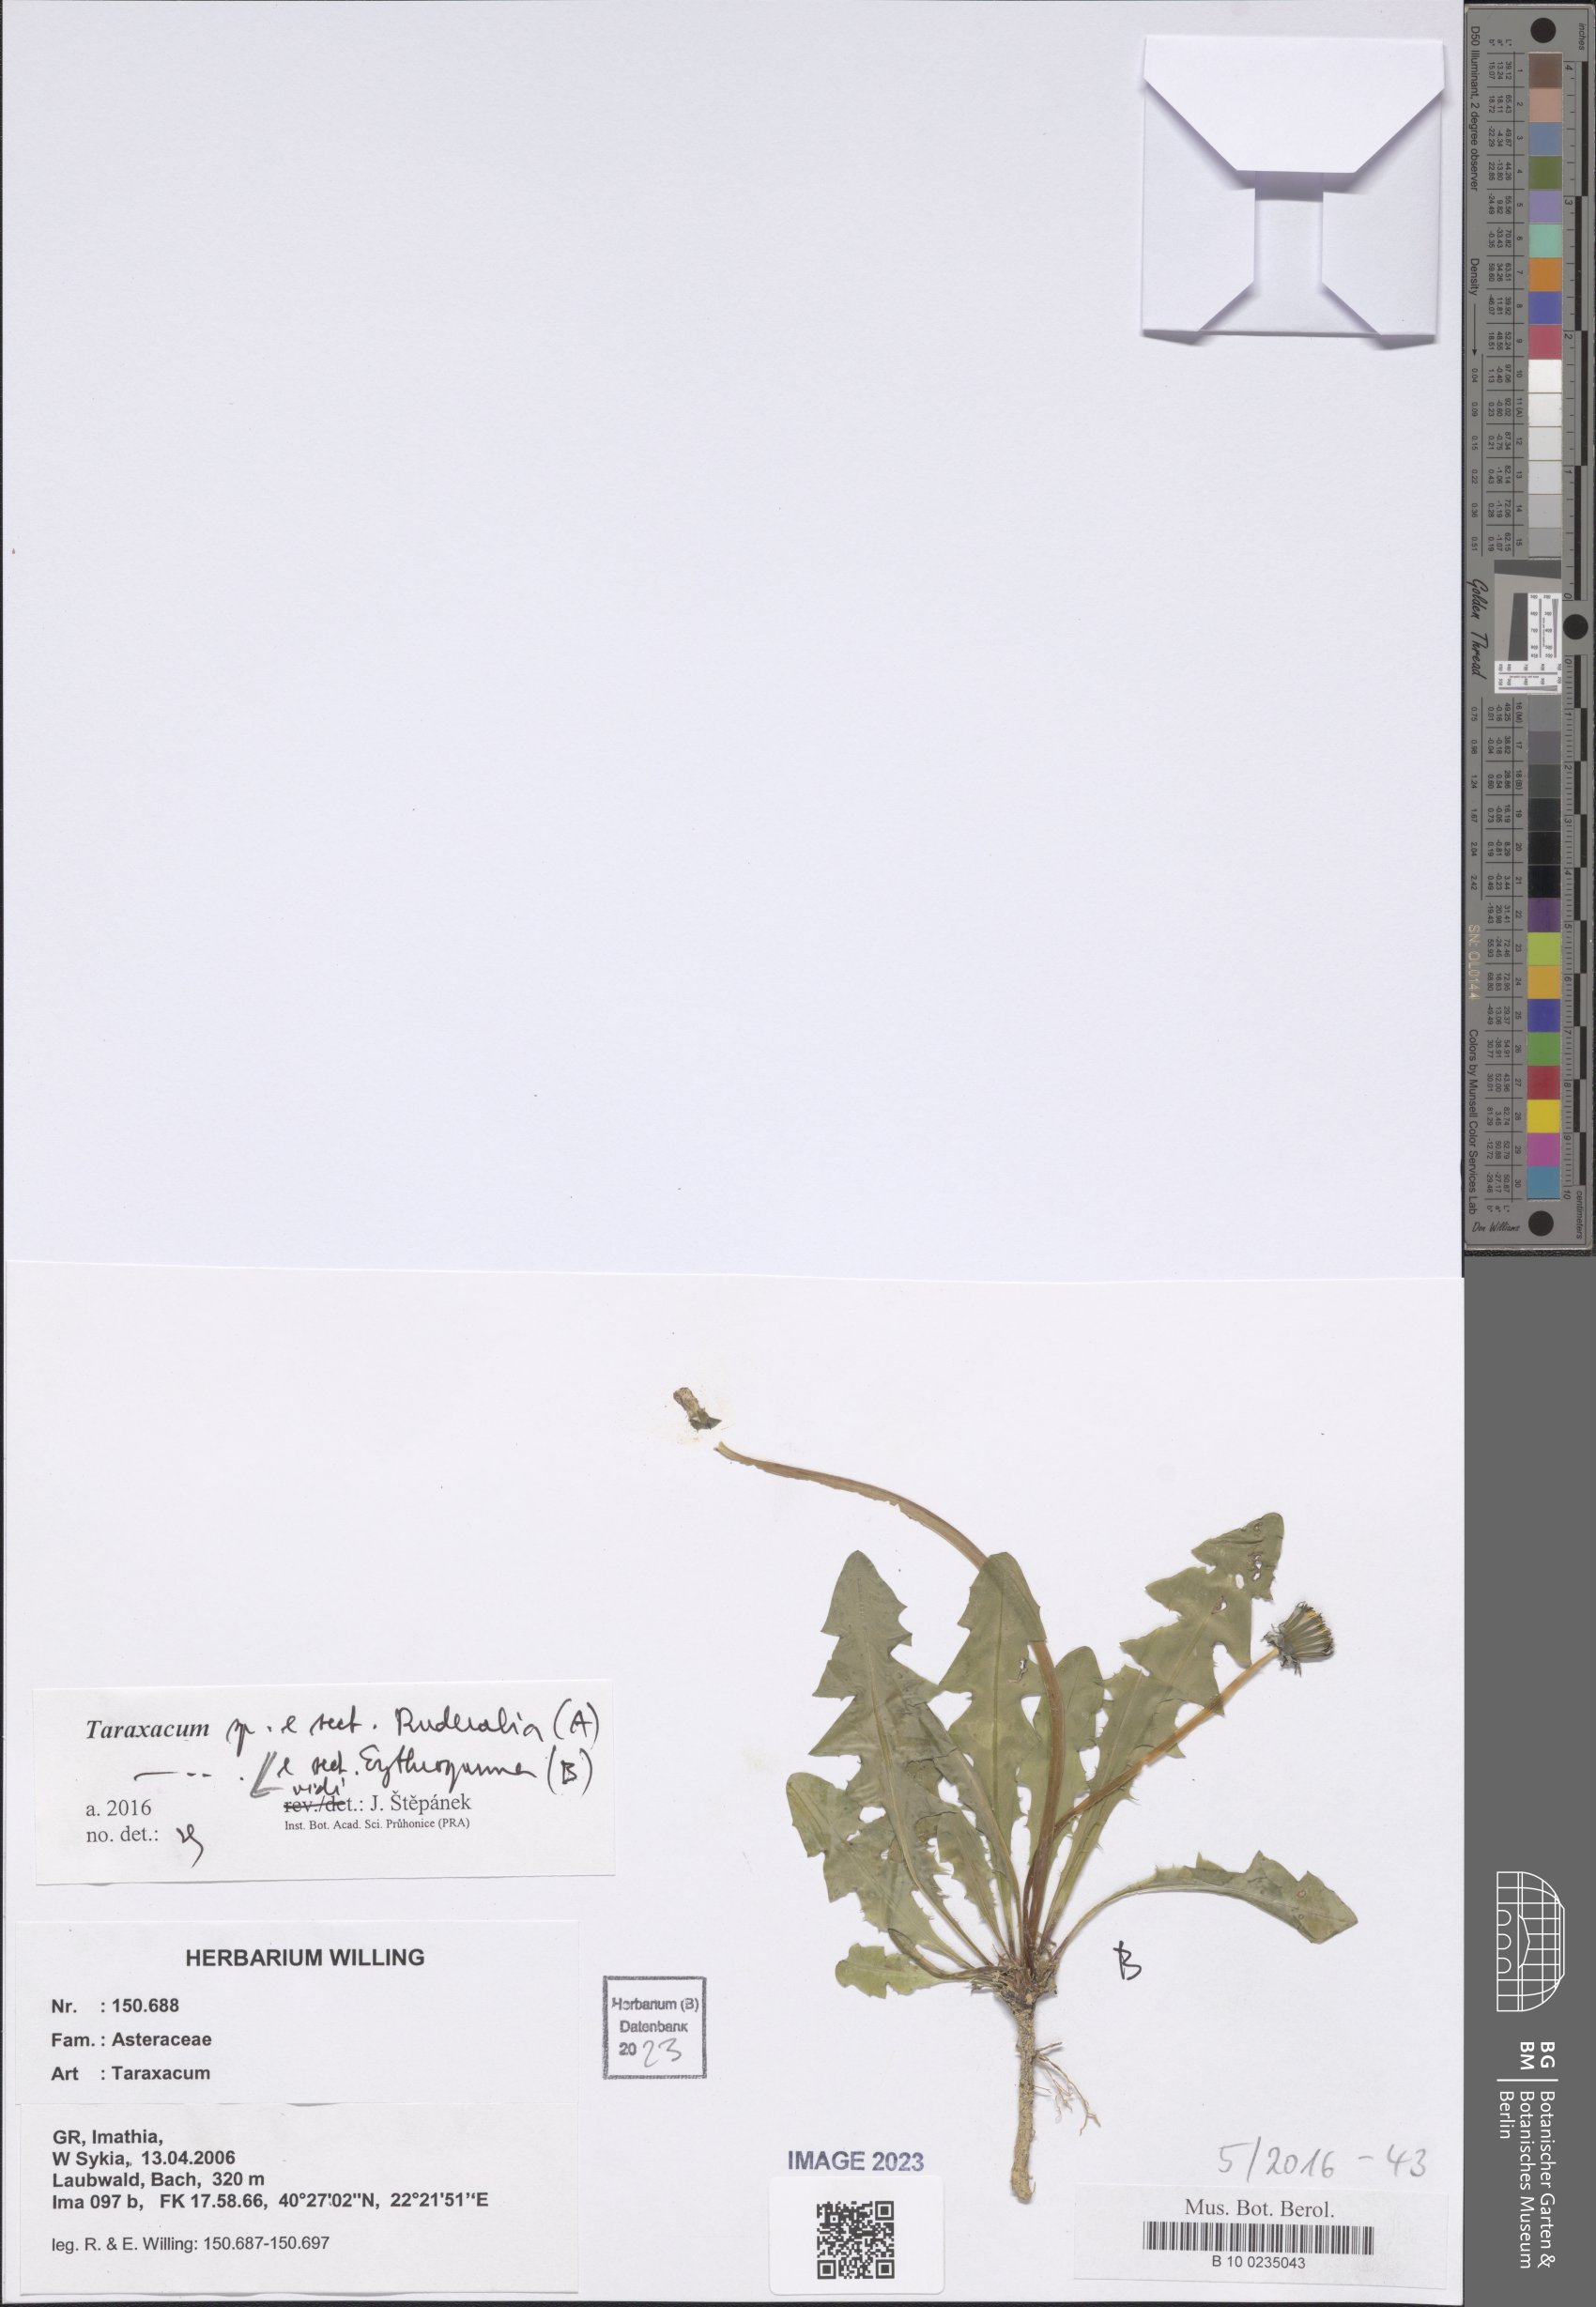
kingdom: Plantae
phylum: Tracheophyta
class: Magnoliopsida
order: Asterales
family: Asteraceae
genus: Taraxacum
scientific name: Taraxacum
